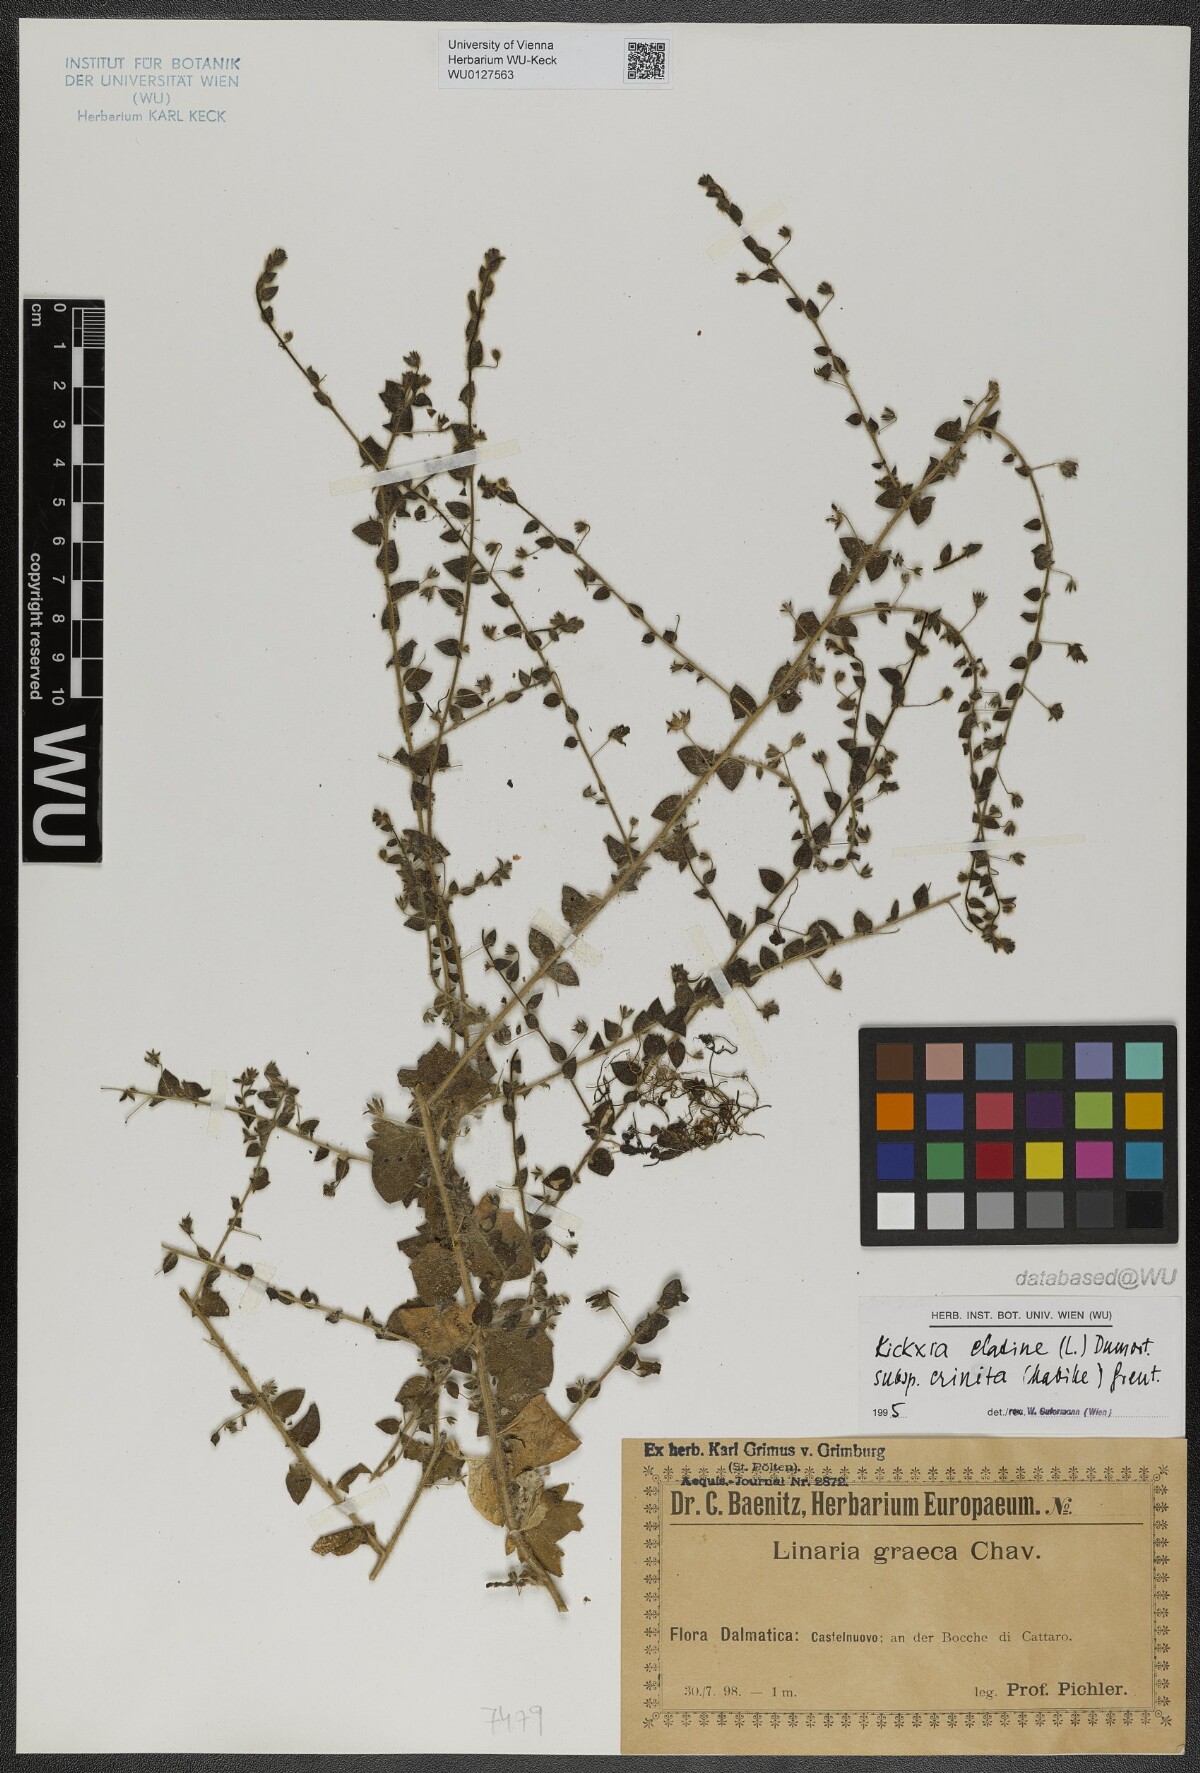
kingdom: Plantae
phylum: Tracheophyta
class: Magnoliopsida
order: Lamiales
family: Plantaginaceae
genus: Kickxia
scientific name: Kickxia elatine
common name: Sharp-leaved fluellen
